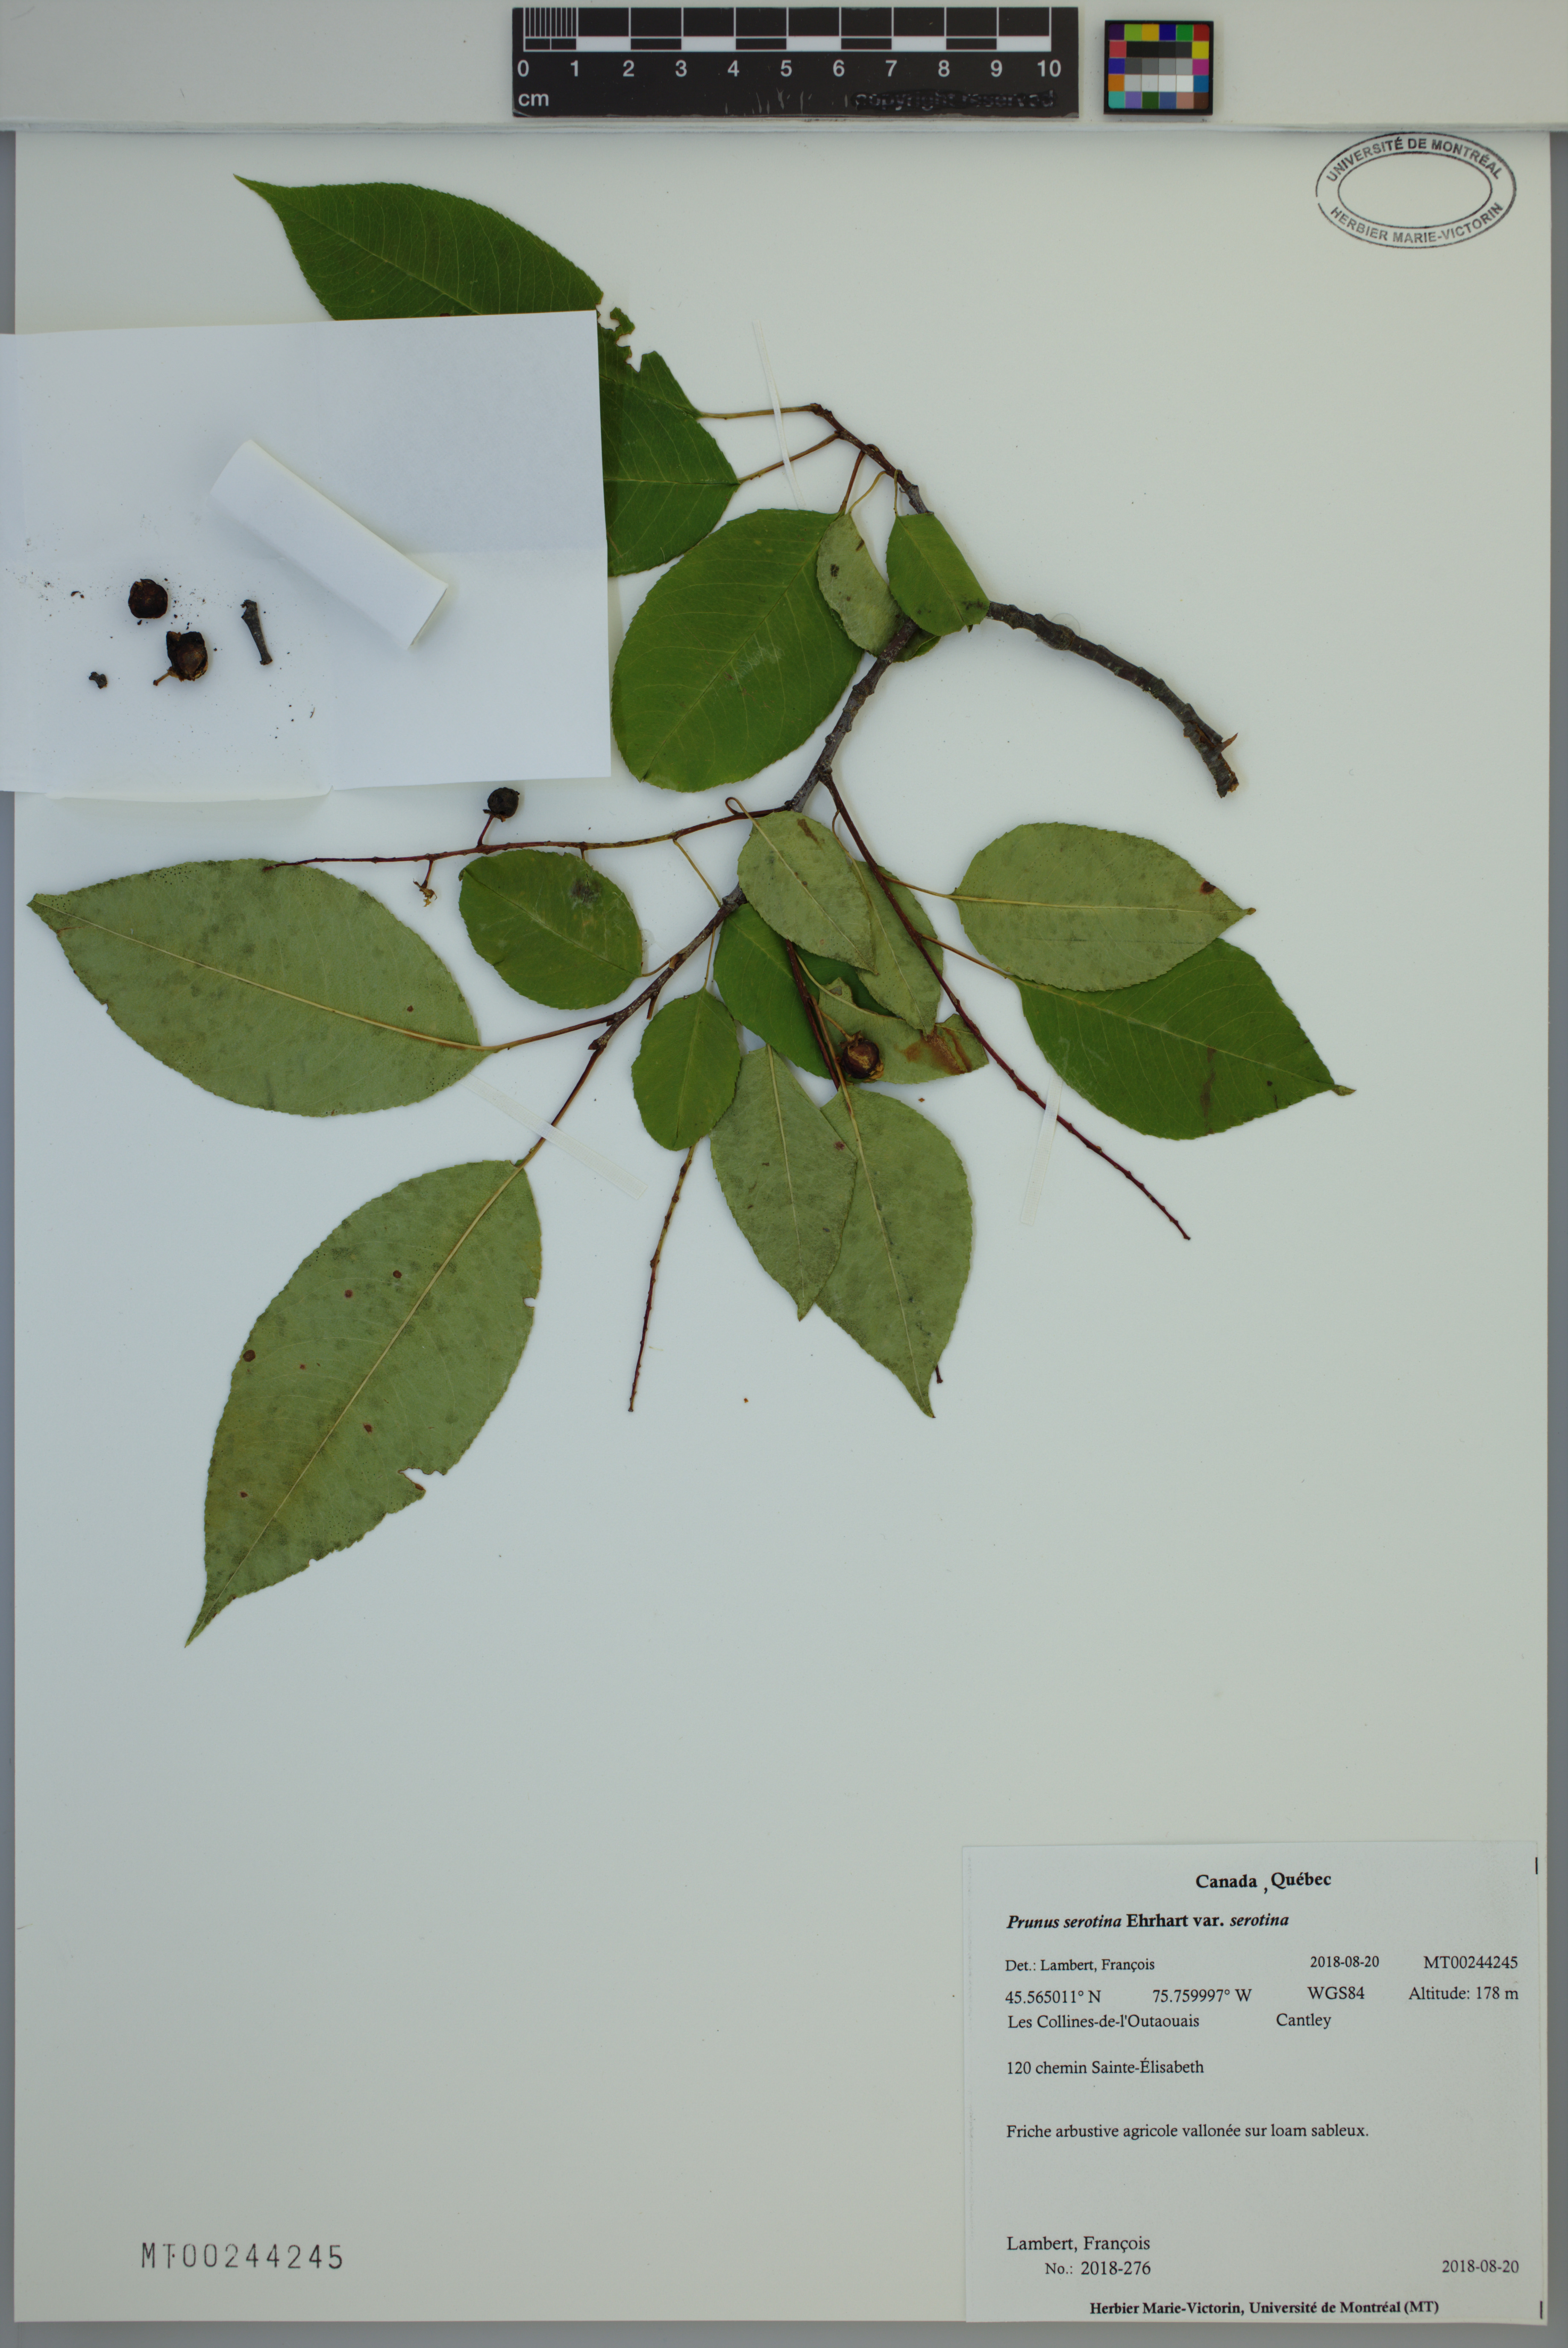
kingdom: Plantae
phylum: Tracheophyta
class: Magnoliopsida
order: Rosales
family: Rosaceae
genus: Prunus
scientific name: Prunus serotina
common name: Black cherry
